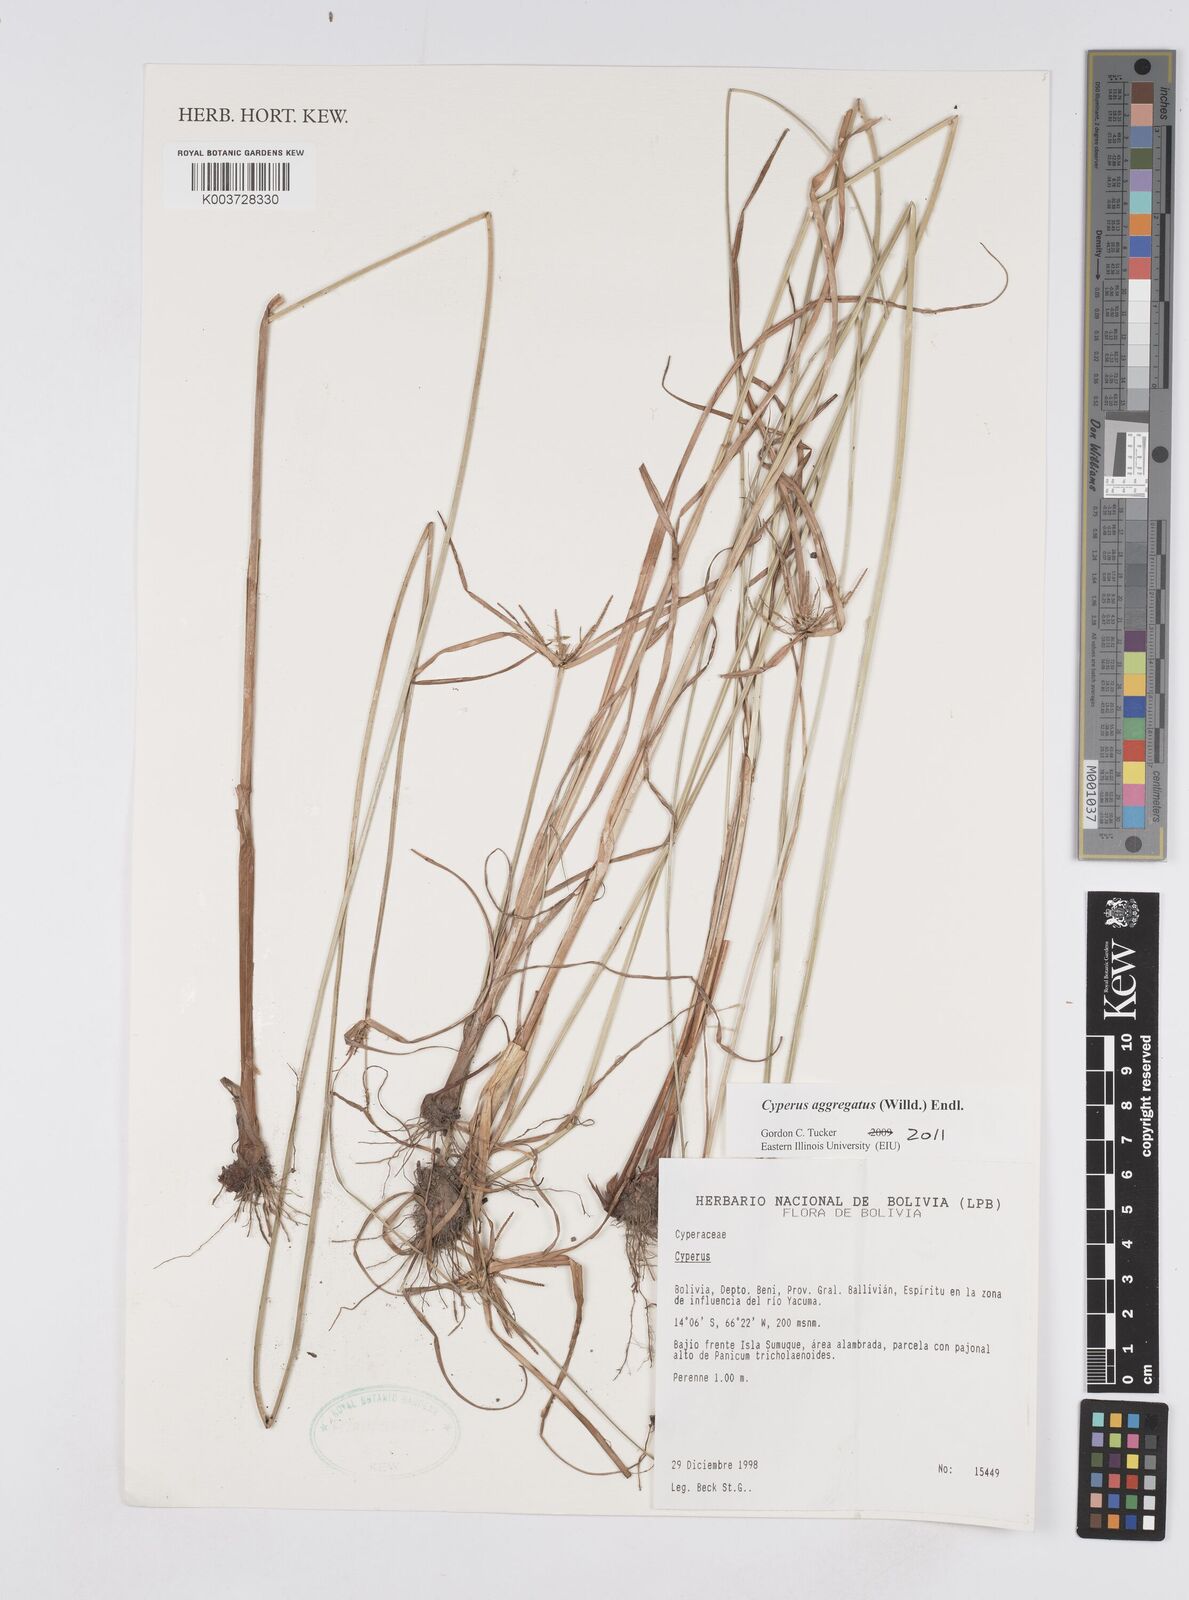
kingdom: Plantae
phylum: Tracheophyta
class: Liliopsida
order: Poales
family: Cyperaceae
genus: Cyperus
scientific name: Cyperus aggregatus
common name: Inflatedscale flatsedge
